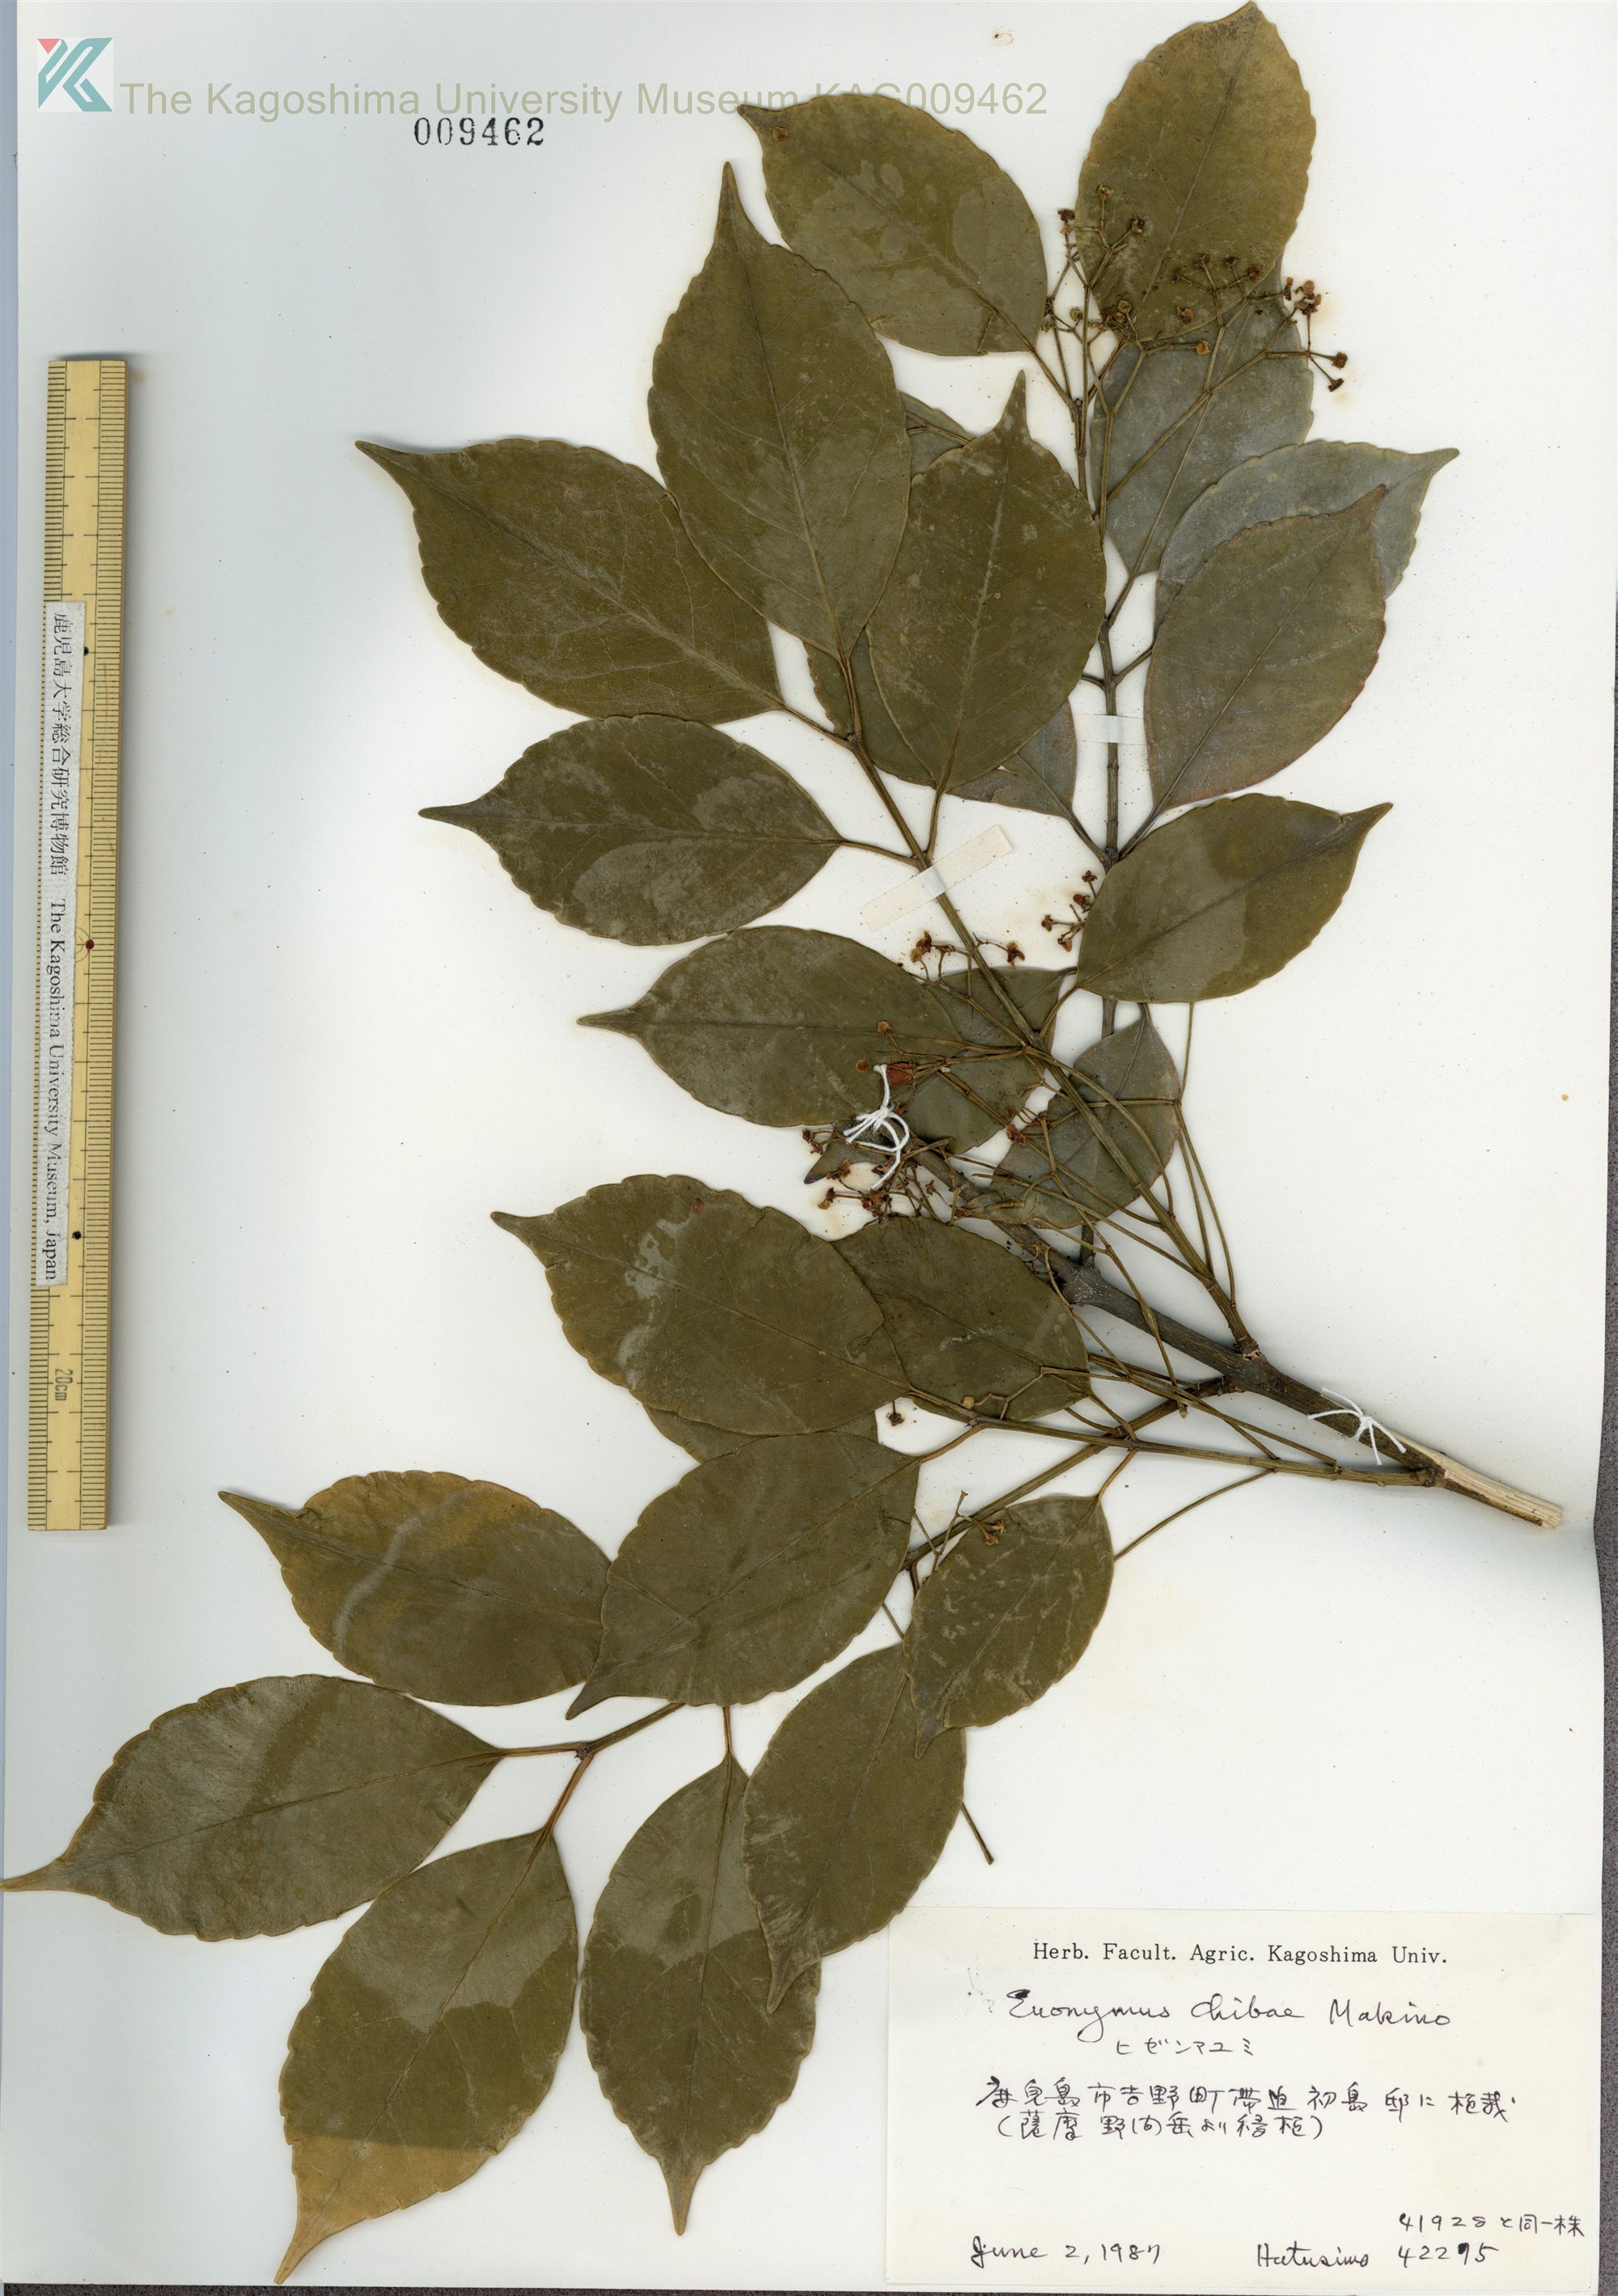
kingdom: Plantae
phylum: Tracheophyta
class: Magnoliopsida
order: Celastrales
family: Celastraceae
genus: Euonymus
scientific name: Euonymus chibae
